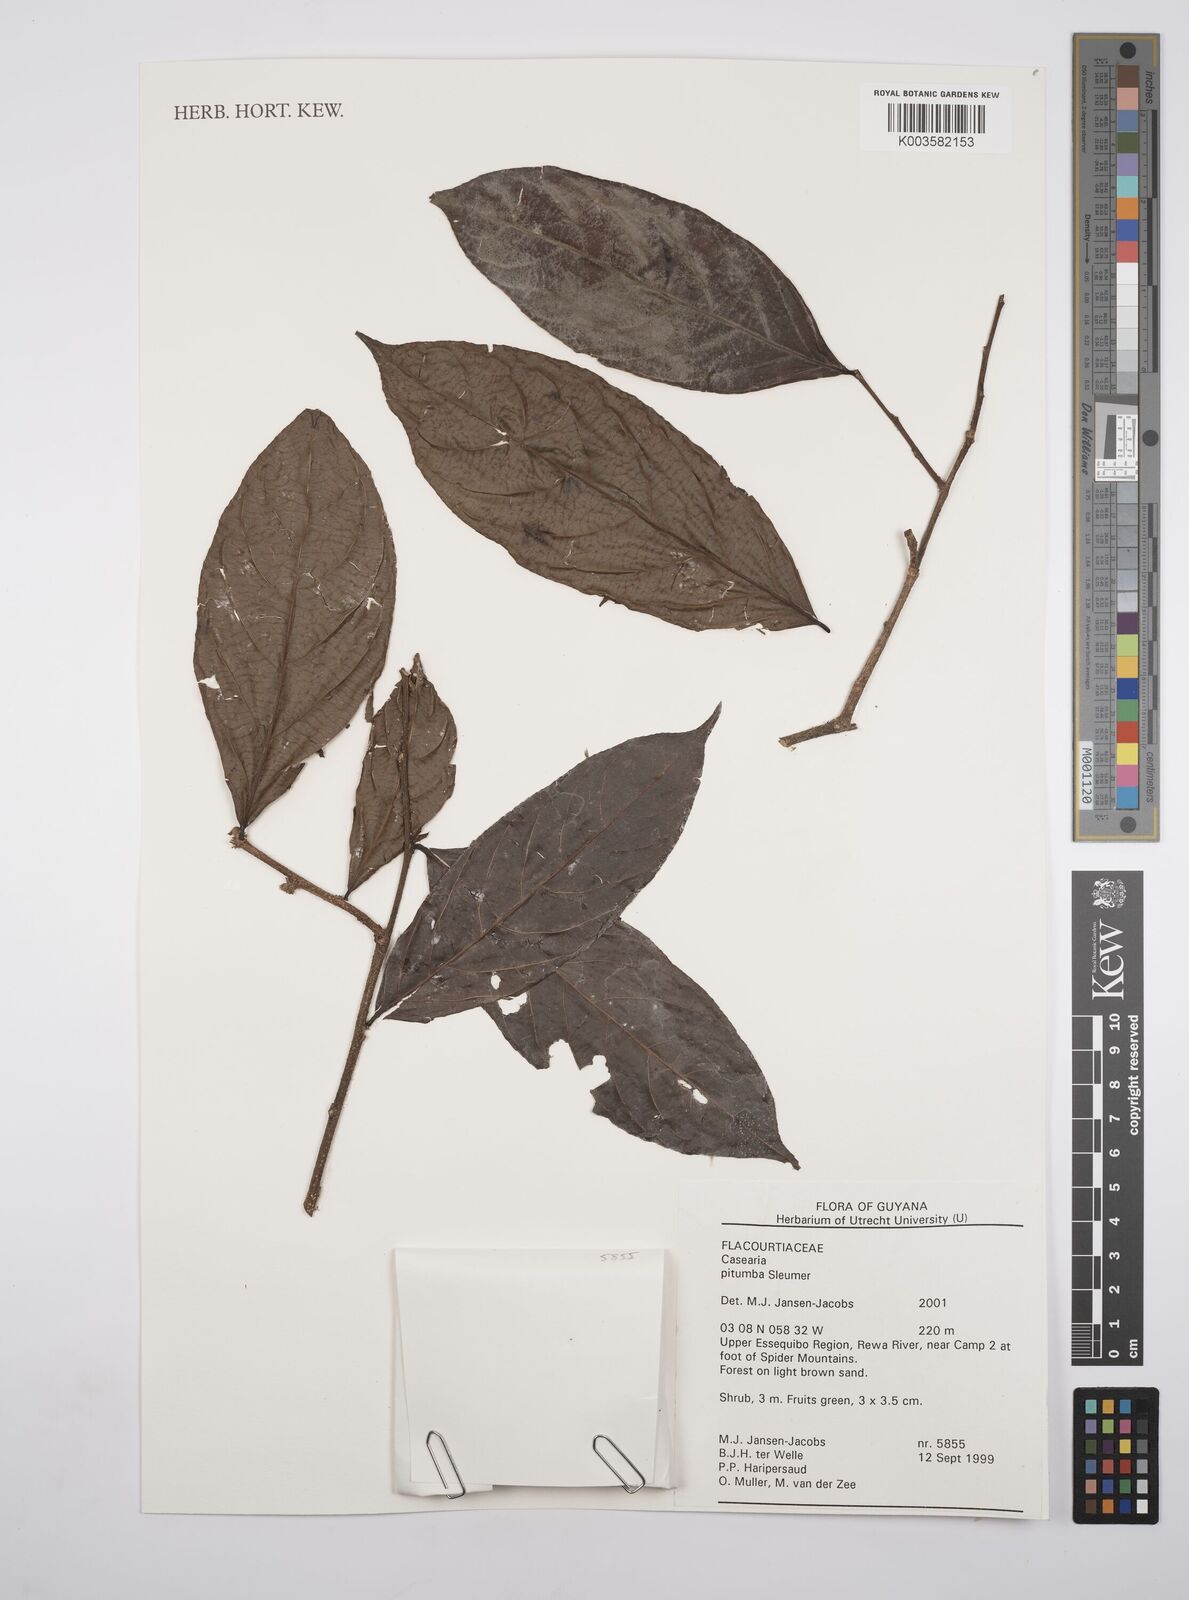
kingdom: Plantae
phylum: Tracheophyta
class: Magnoliopsida
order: Malpighiales
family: Salicaceae
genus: Casearia
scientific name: Casearia pitumba
